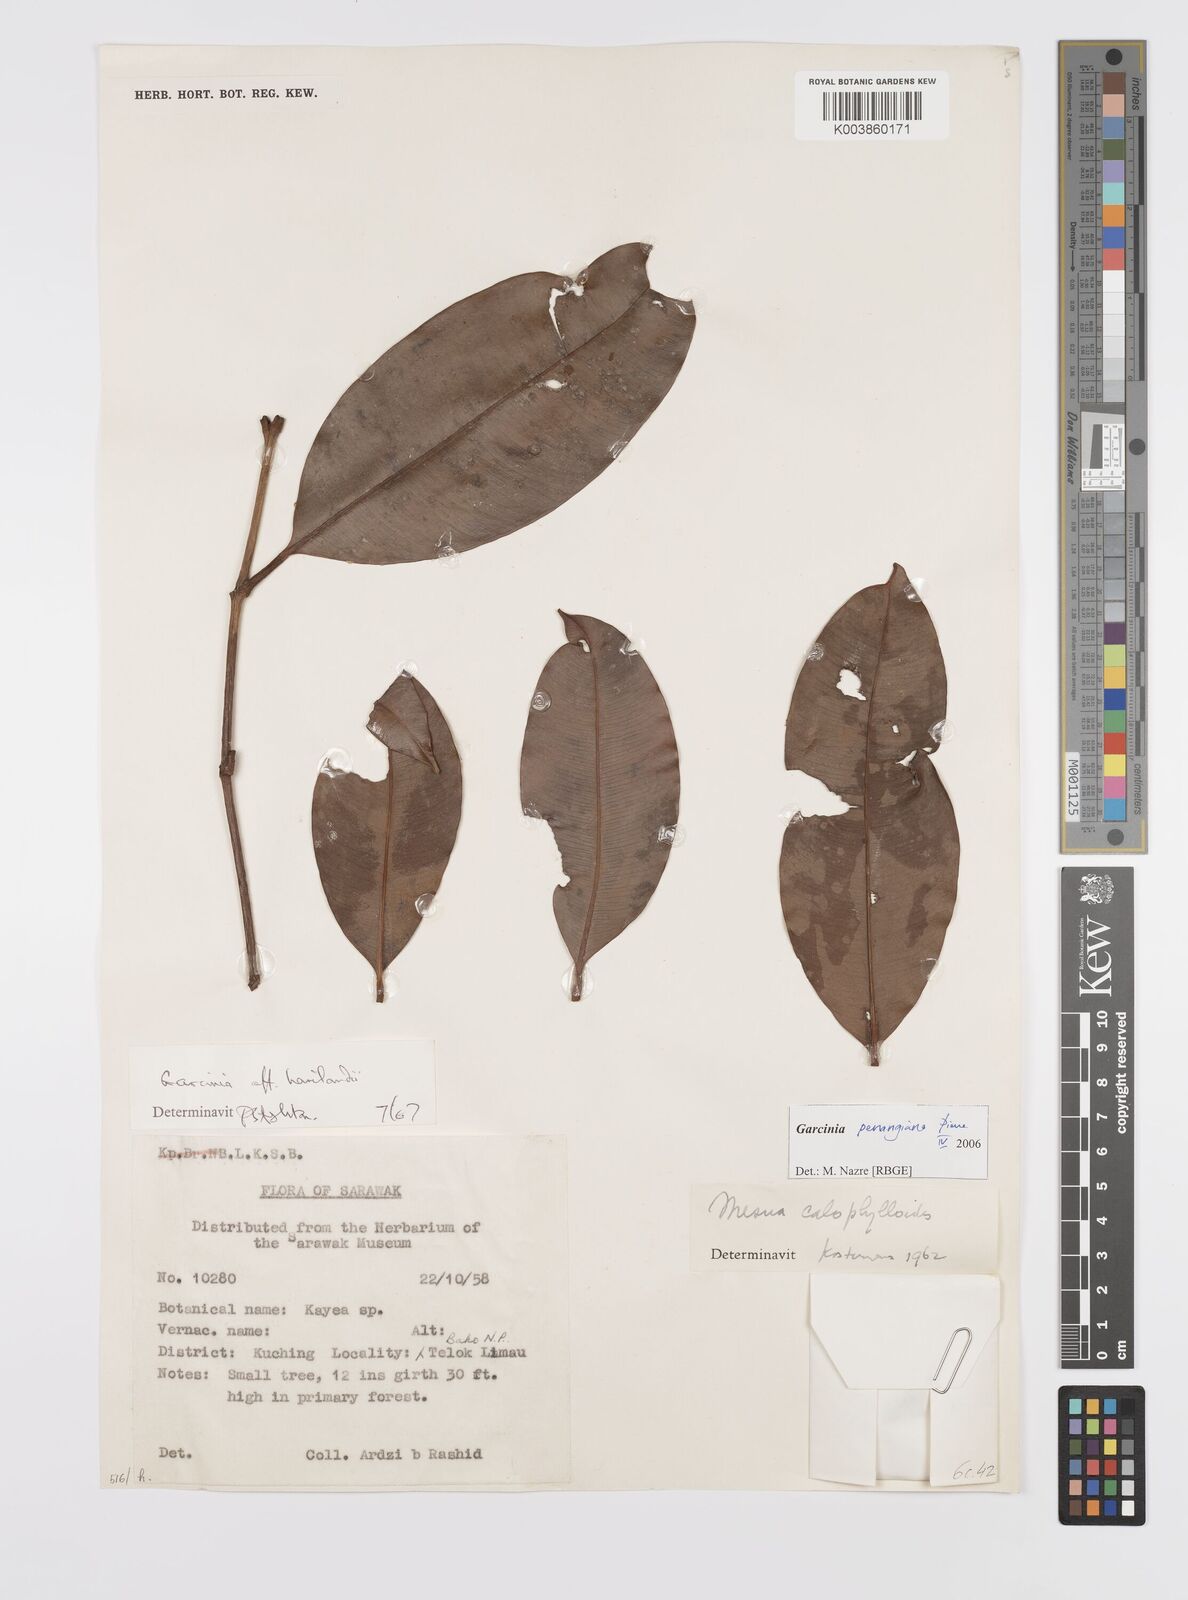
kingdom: Plantae
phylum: Tracheophyta
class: Magnoliopsida
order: Malpighiales
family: Clusiaceae
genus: Garcinia
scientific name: Garcinia penangiana
